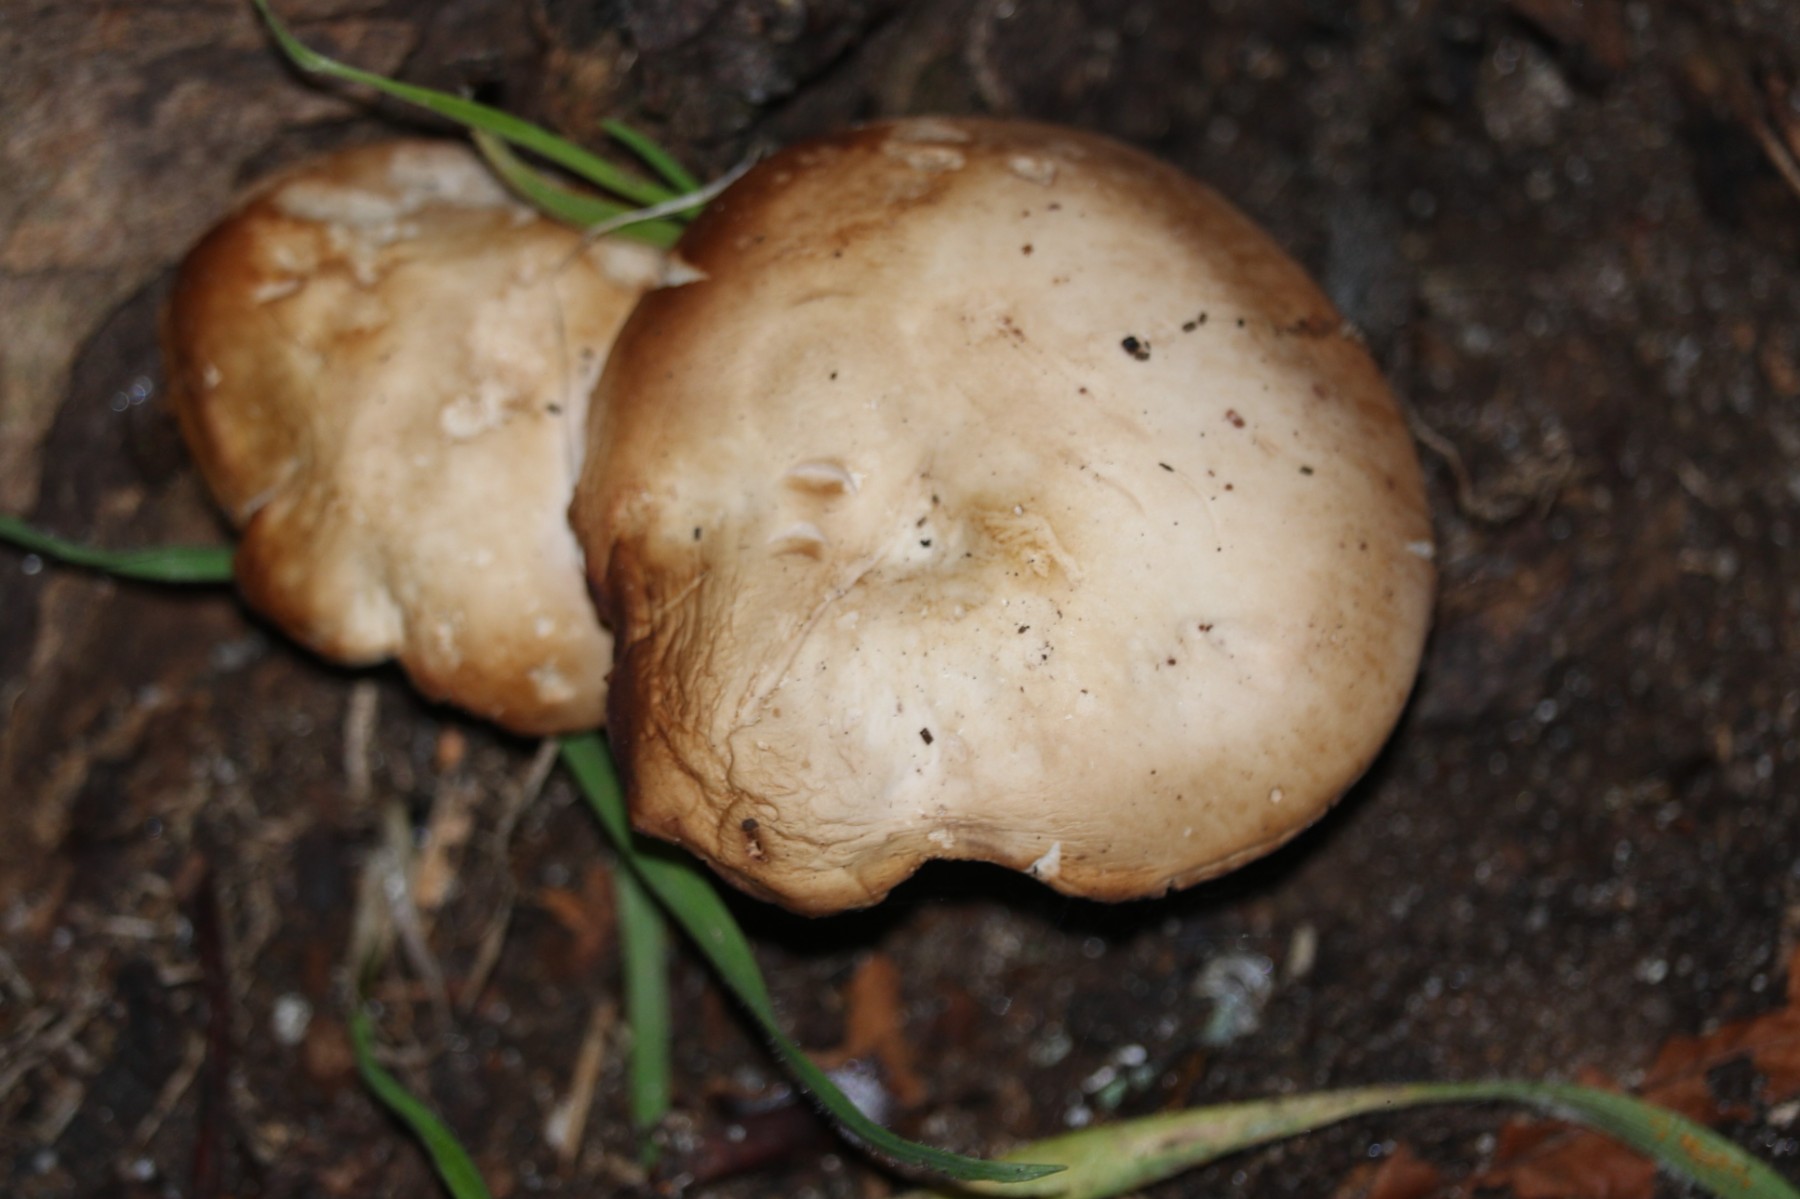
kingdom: Fungi
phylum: Basidiomycota
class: Agaricomycetes
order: Agaricales
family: Psathyrellaceae
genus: Homophron
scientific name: Homophron
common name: mørkhat
